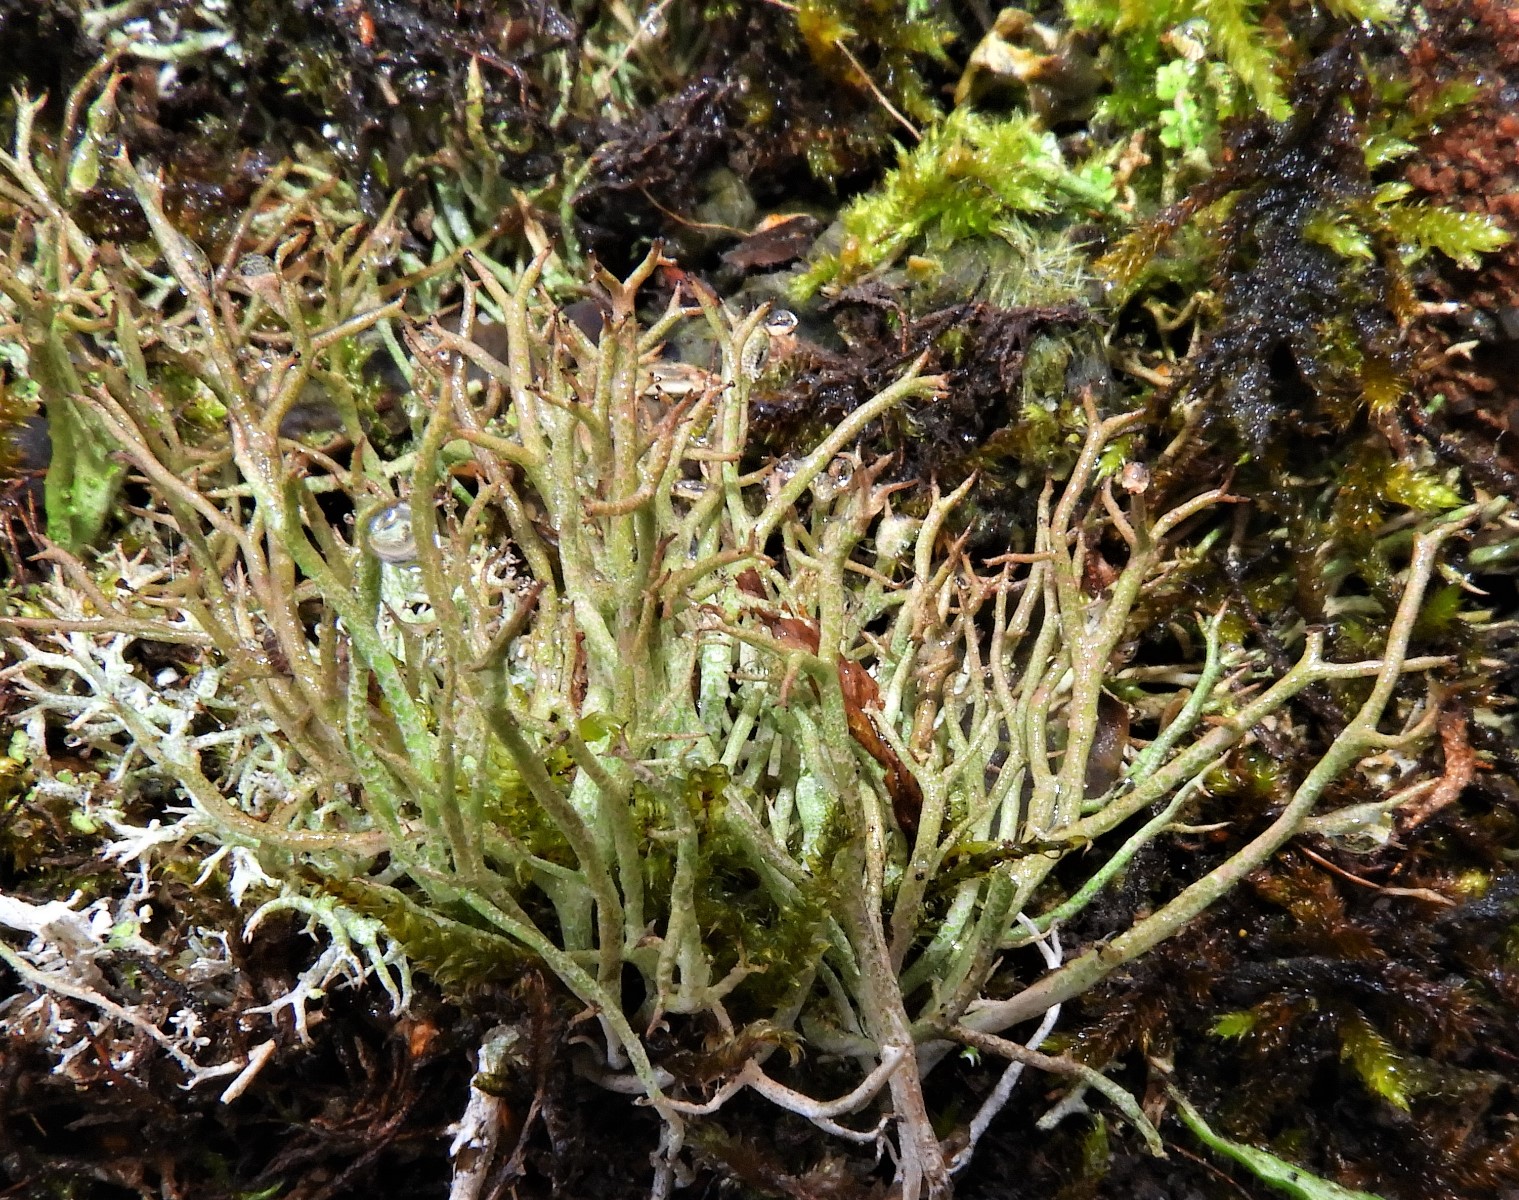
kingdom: Fungi
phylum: Ascomycota
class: Lecanoromycetes
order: Lecanorales
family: Cladoniaceae
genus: Cladonia
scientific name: Cladonia rangiformis
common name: spættet bægerlav
